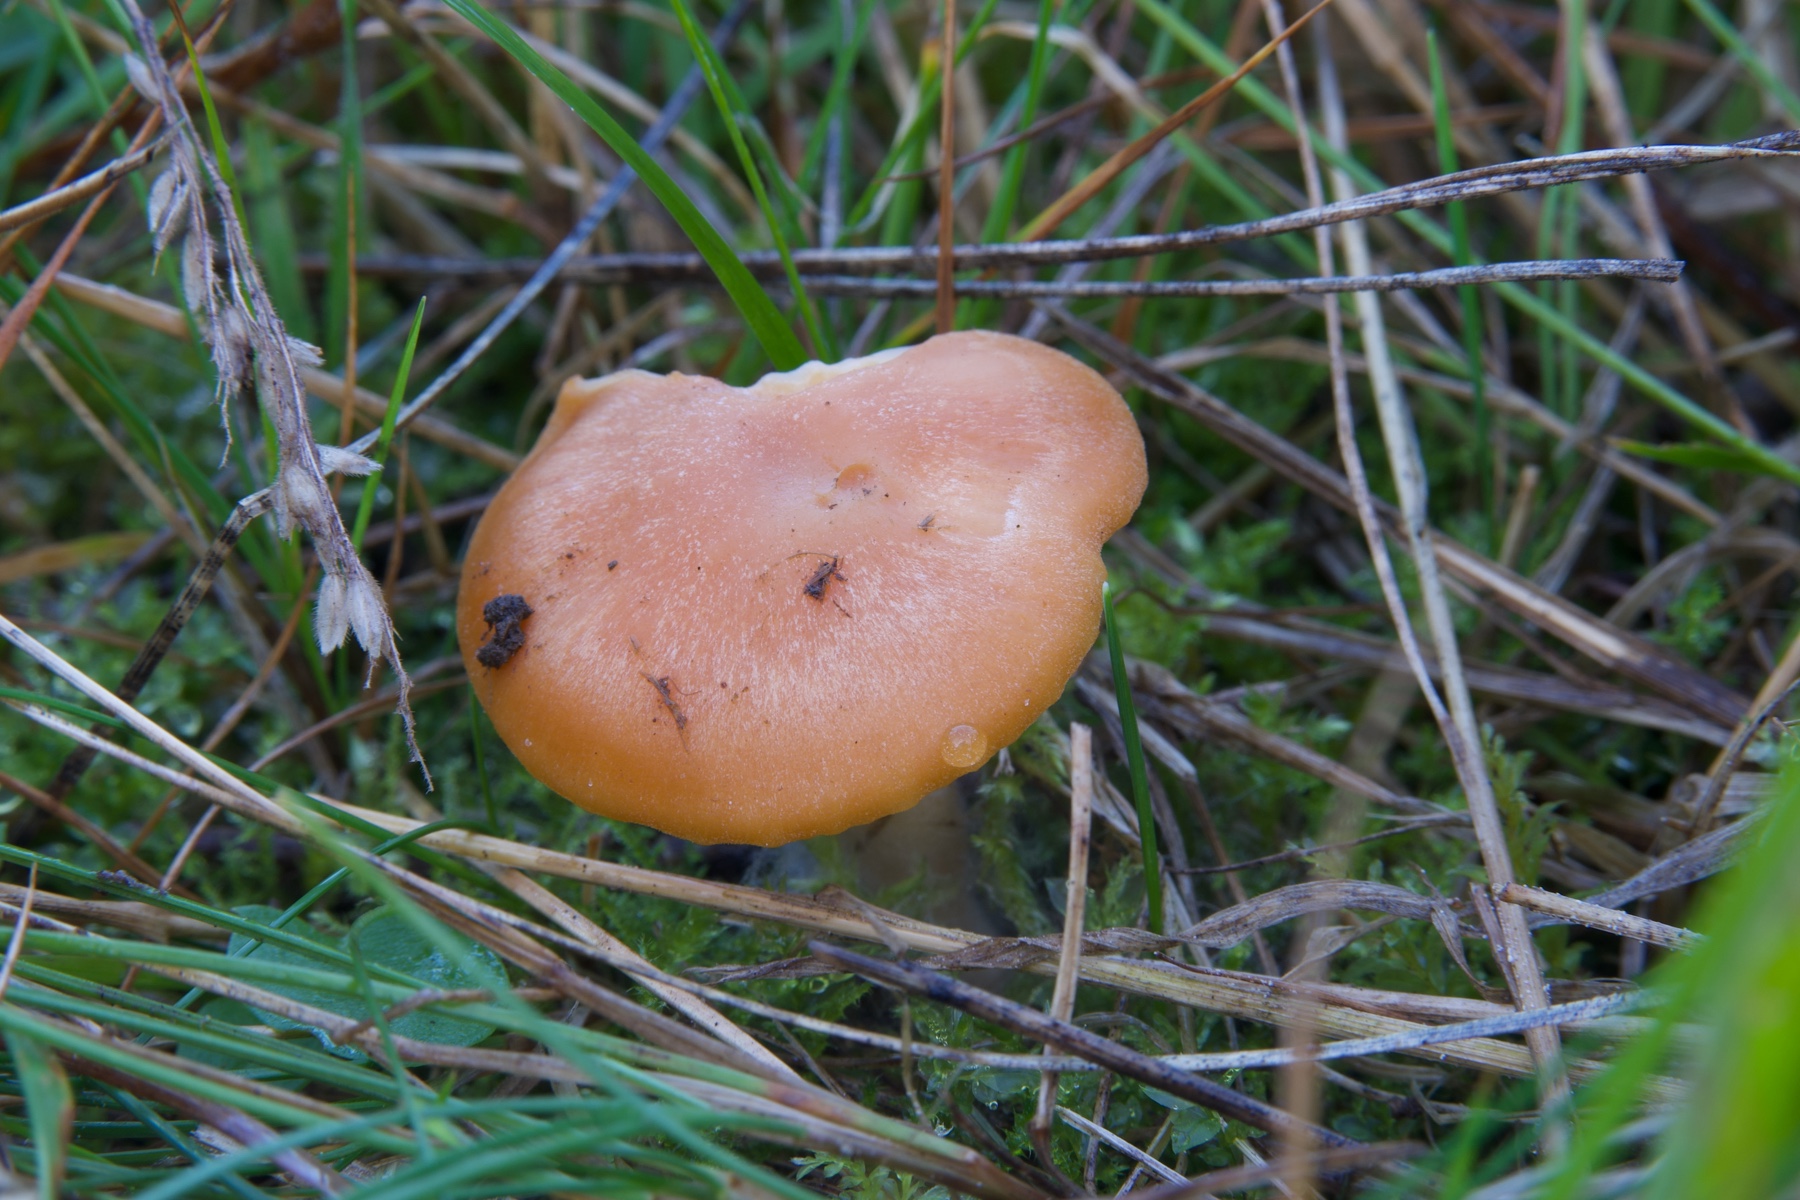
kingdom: Fungi
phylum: Basidiomycota
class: Agaricomycetes
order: Agaricales
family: Hygrophoraceae
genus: Cuphophyllus
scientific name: Cuphophyllus pratensis
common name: eng-vokshat
